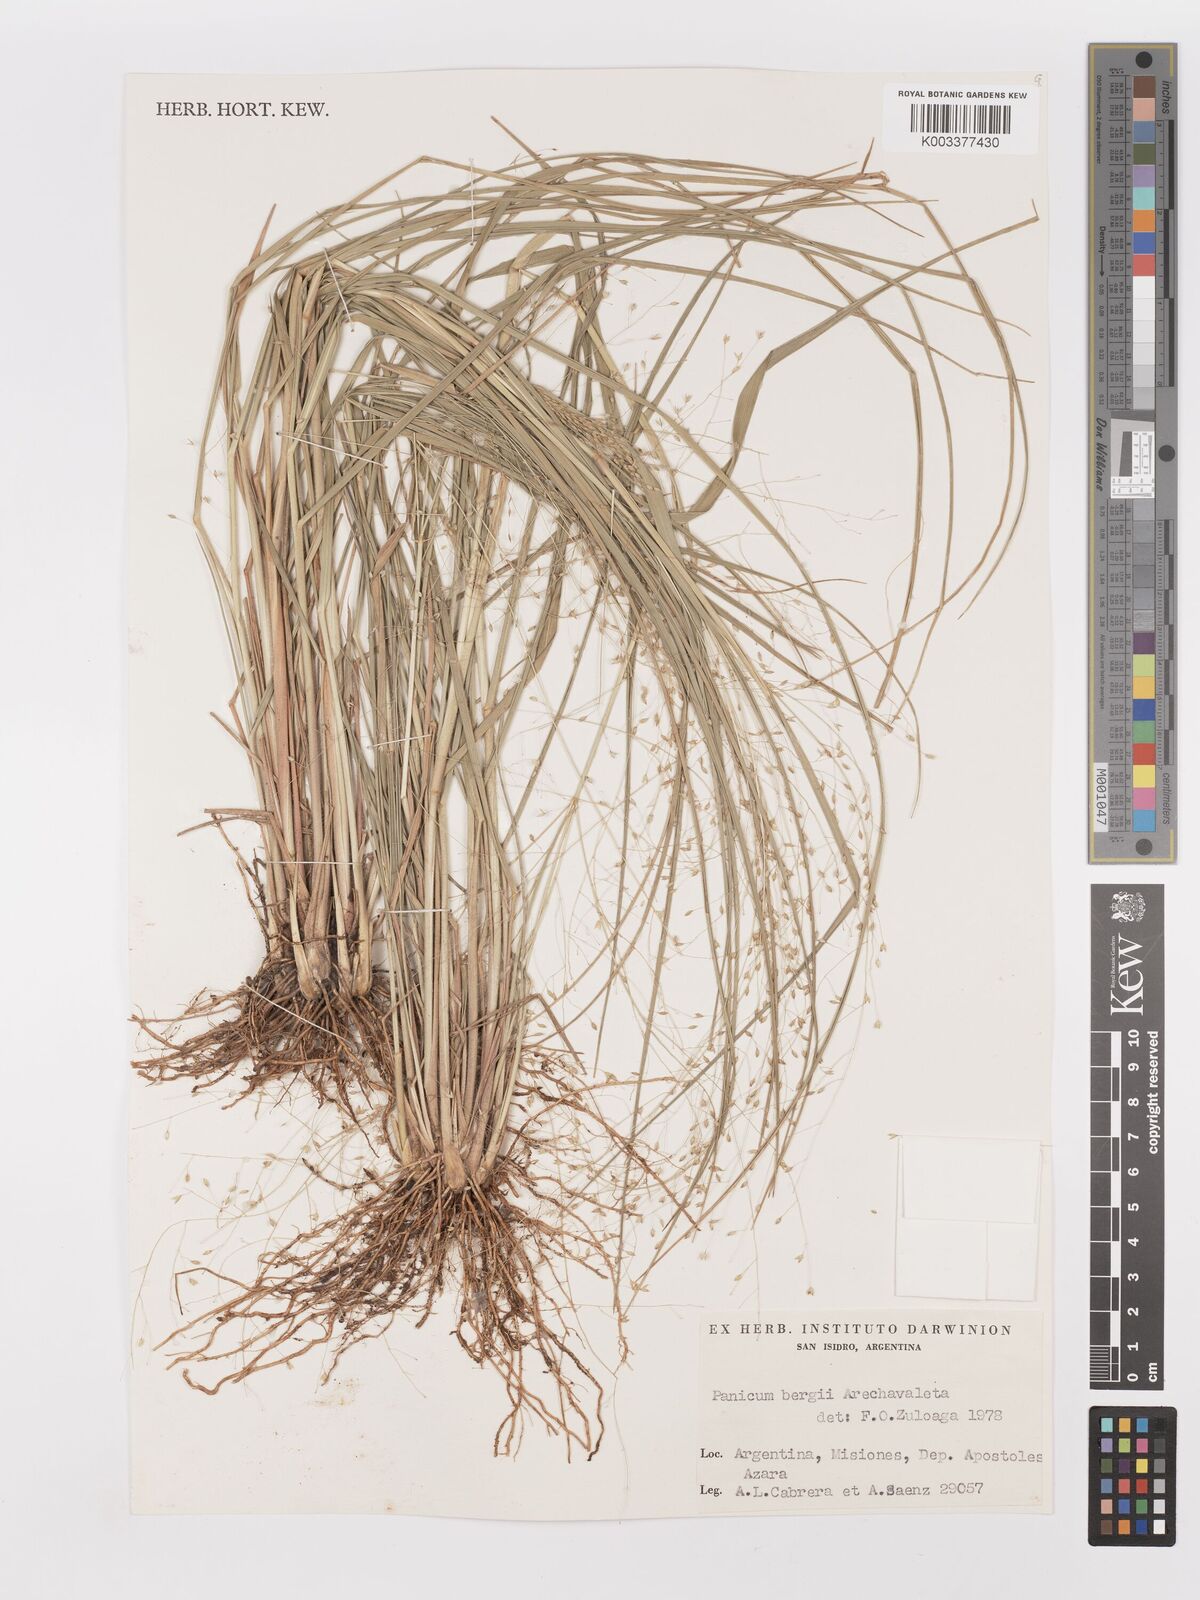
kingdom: Plantae
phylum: Tracheophyta
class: Liliopsida
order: Poales
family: Poaceae
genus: Panicum
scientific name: Panicum bergii
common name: Berg's panicgrass
